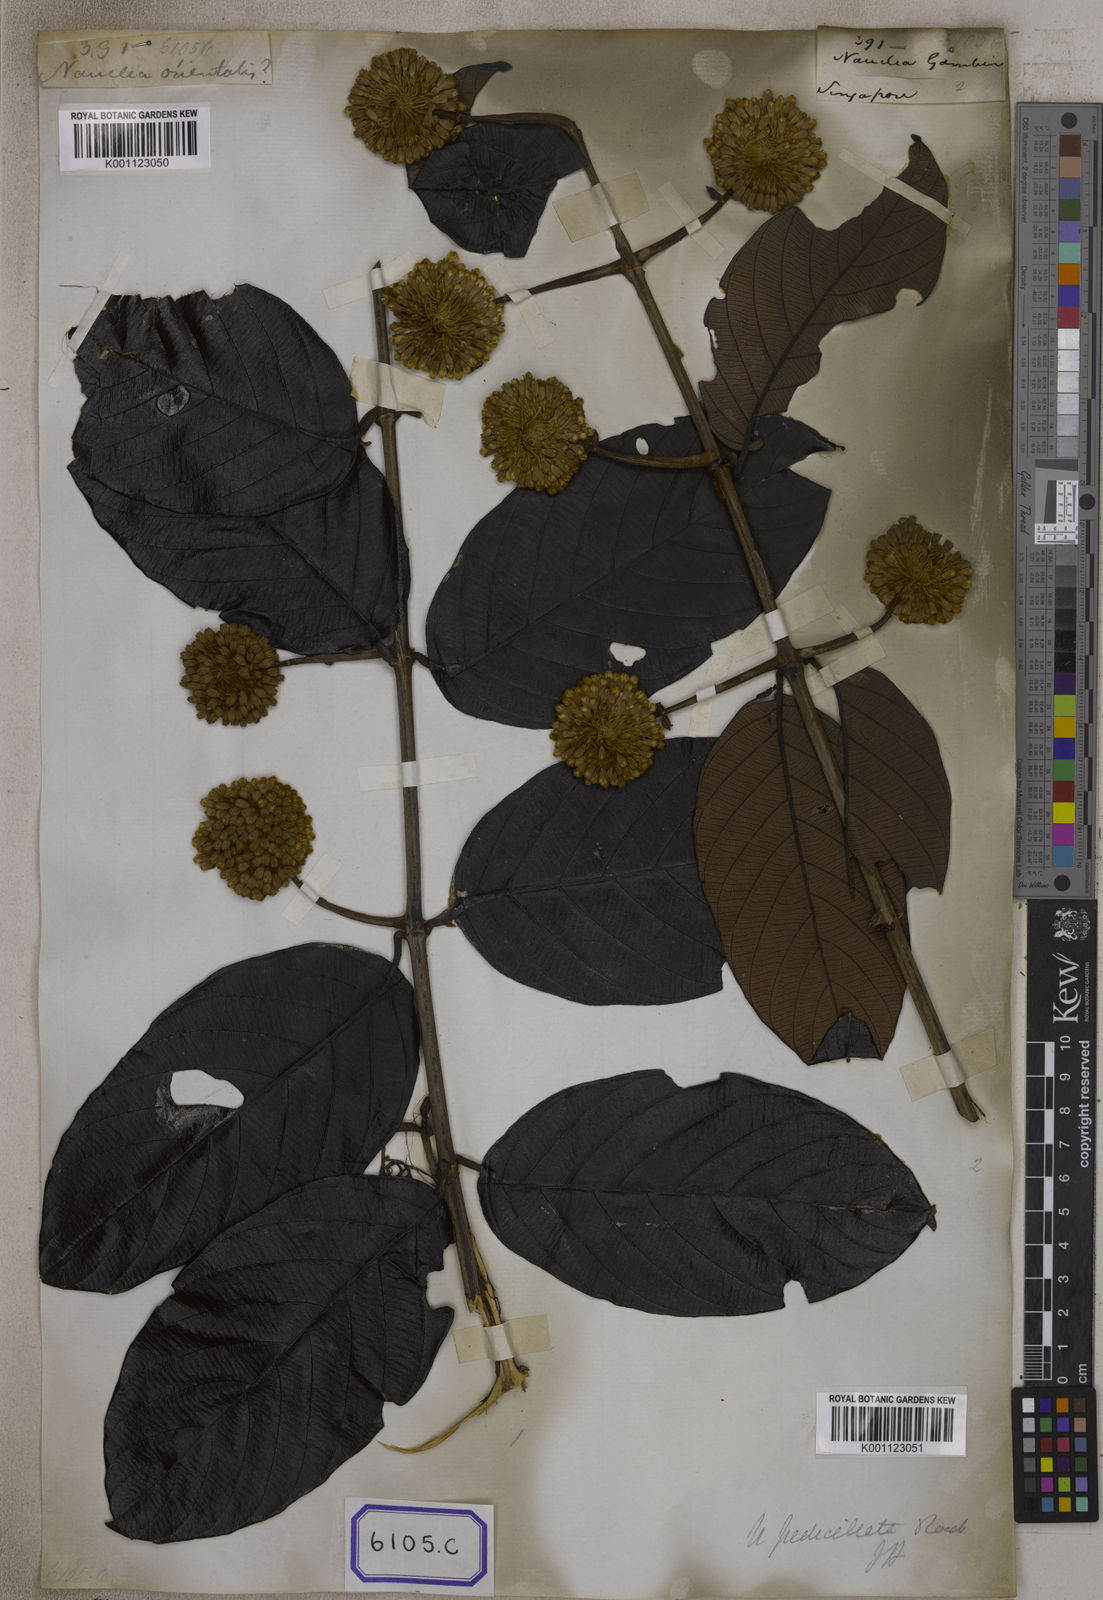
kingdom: Plantae
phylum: Tracheophyta
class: Magnoliopsida
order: Gentianales
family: Rubiaceae
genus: Uncaria
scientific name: Uncaria
